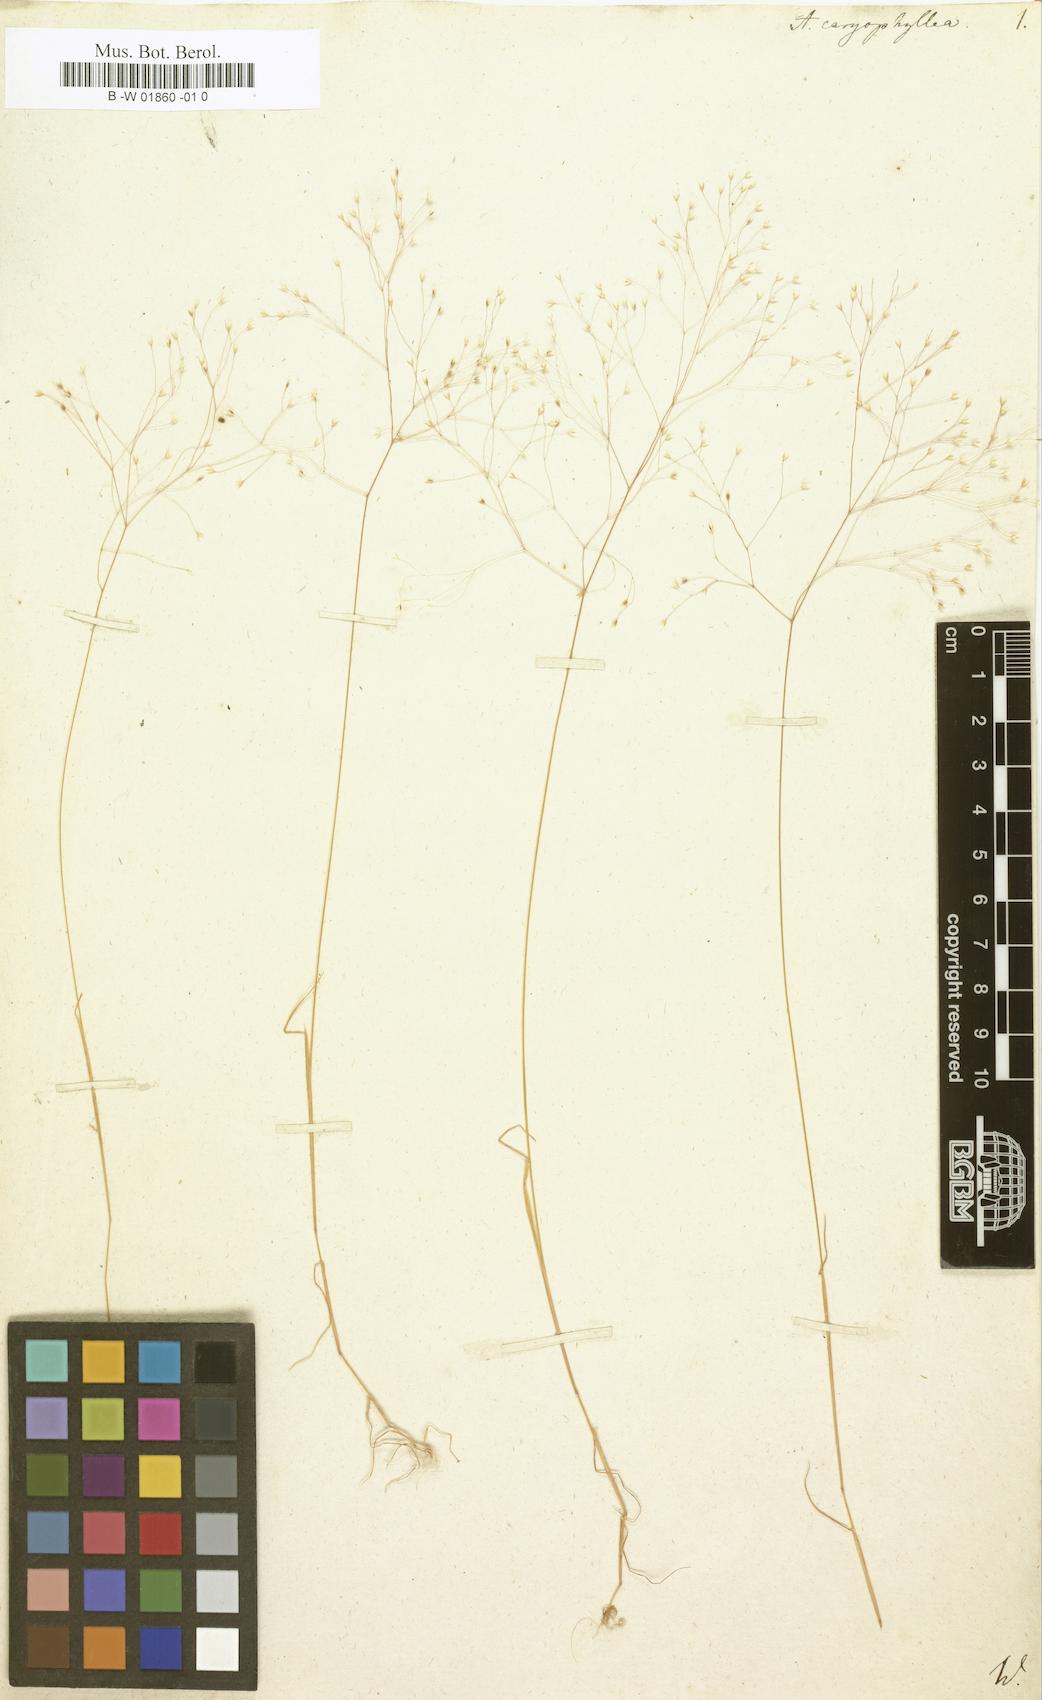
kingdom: Plantae
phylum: Tracheophyta
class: Liliopsida
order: Poales
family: Poaceae
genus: Aira
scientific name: Aira caryophyllea
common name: Silver hairgrass
